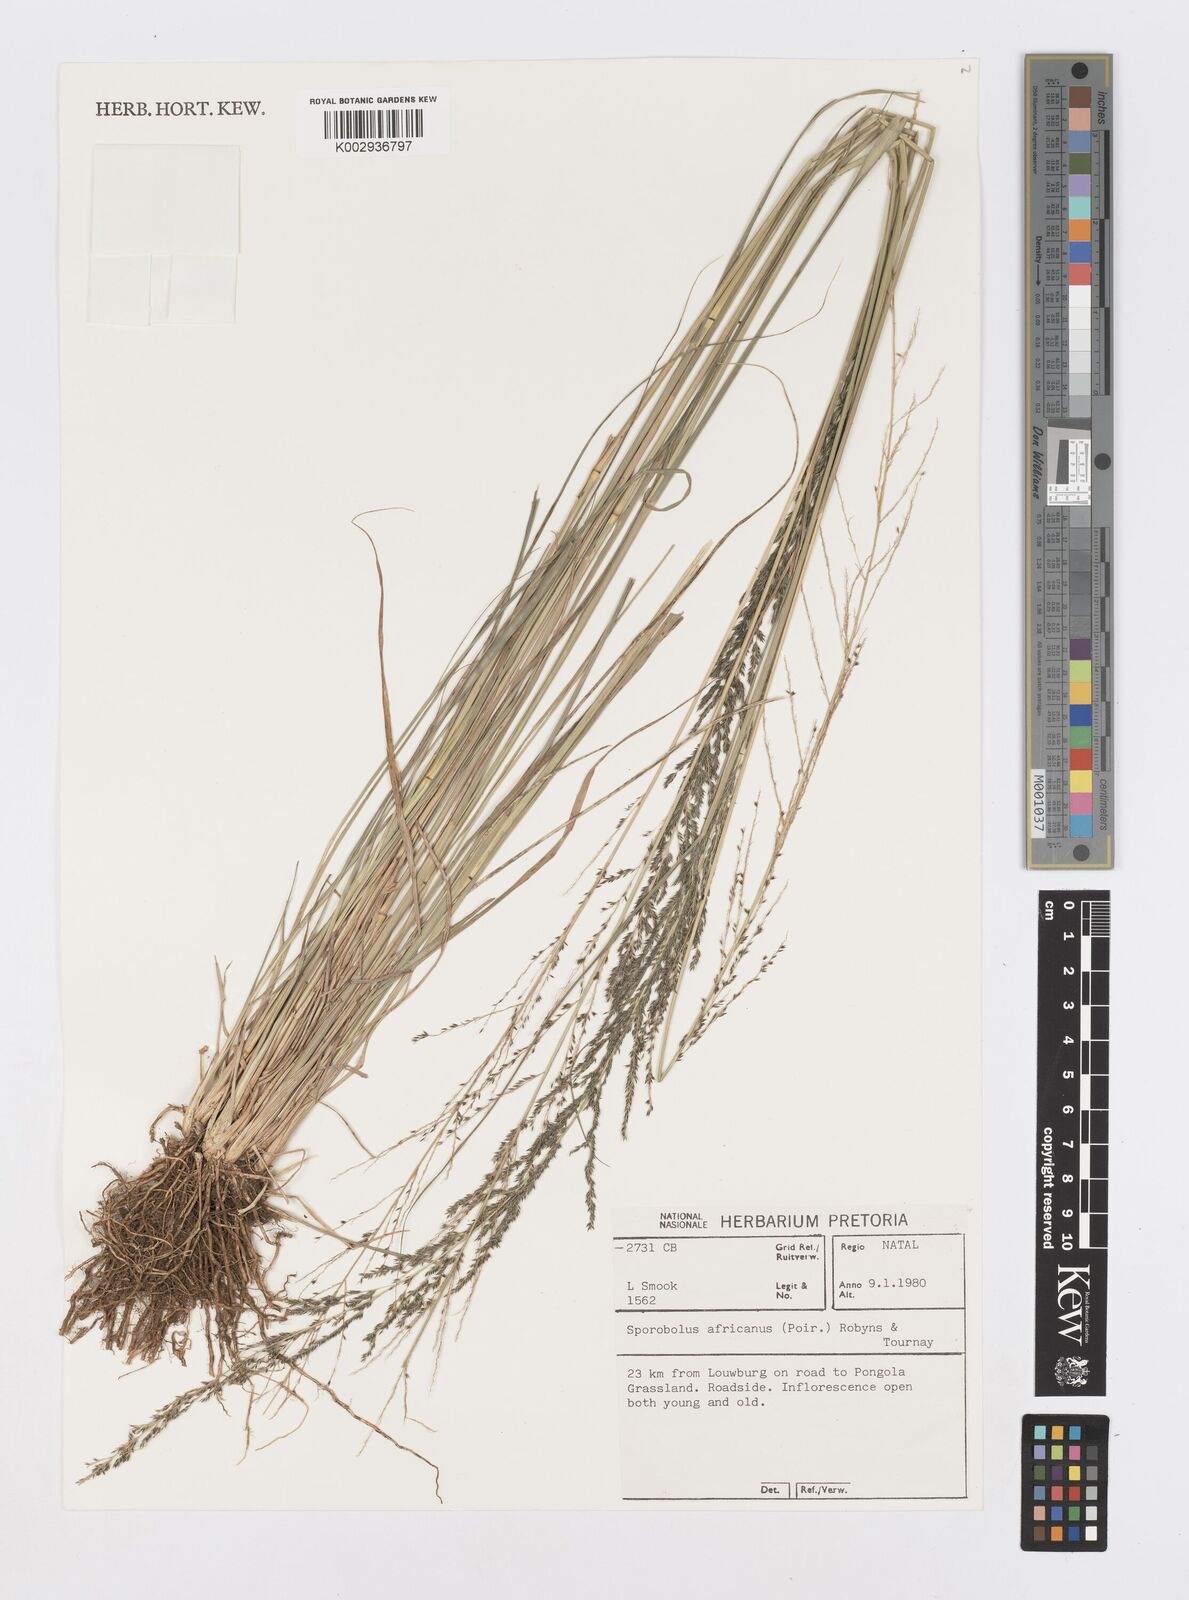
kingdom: Plantae
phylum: Tracheophyta
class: Liliopsida
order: Poales
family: Poaceae
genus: Sporobolus
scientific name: Sporobolus pyramidalis
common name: West indian dropseed
